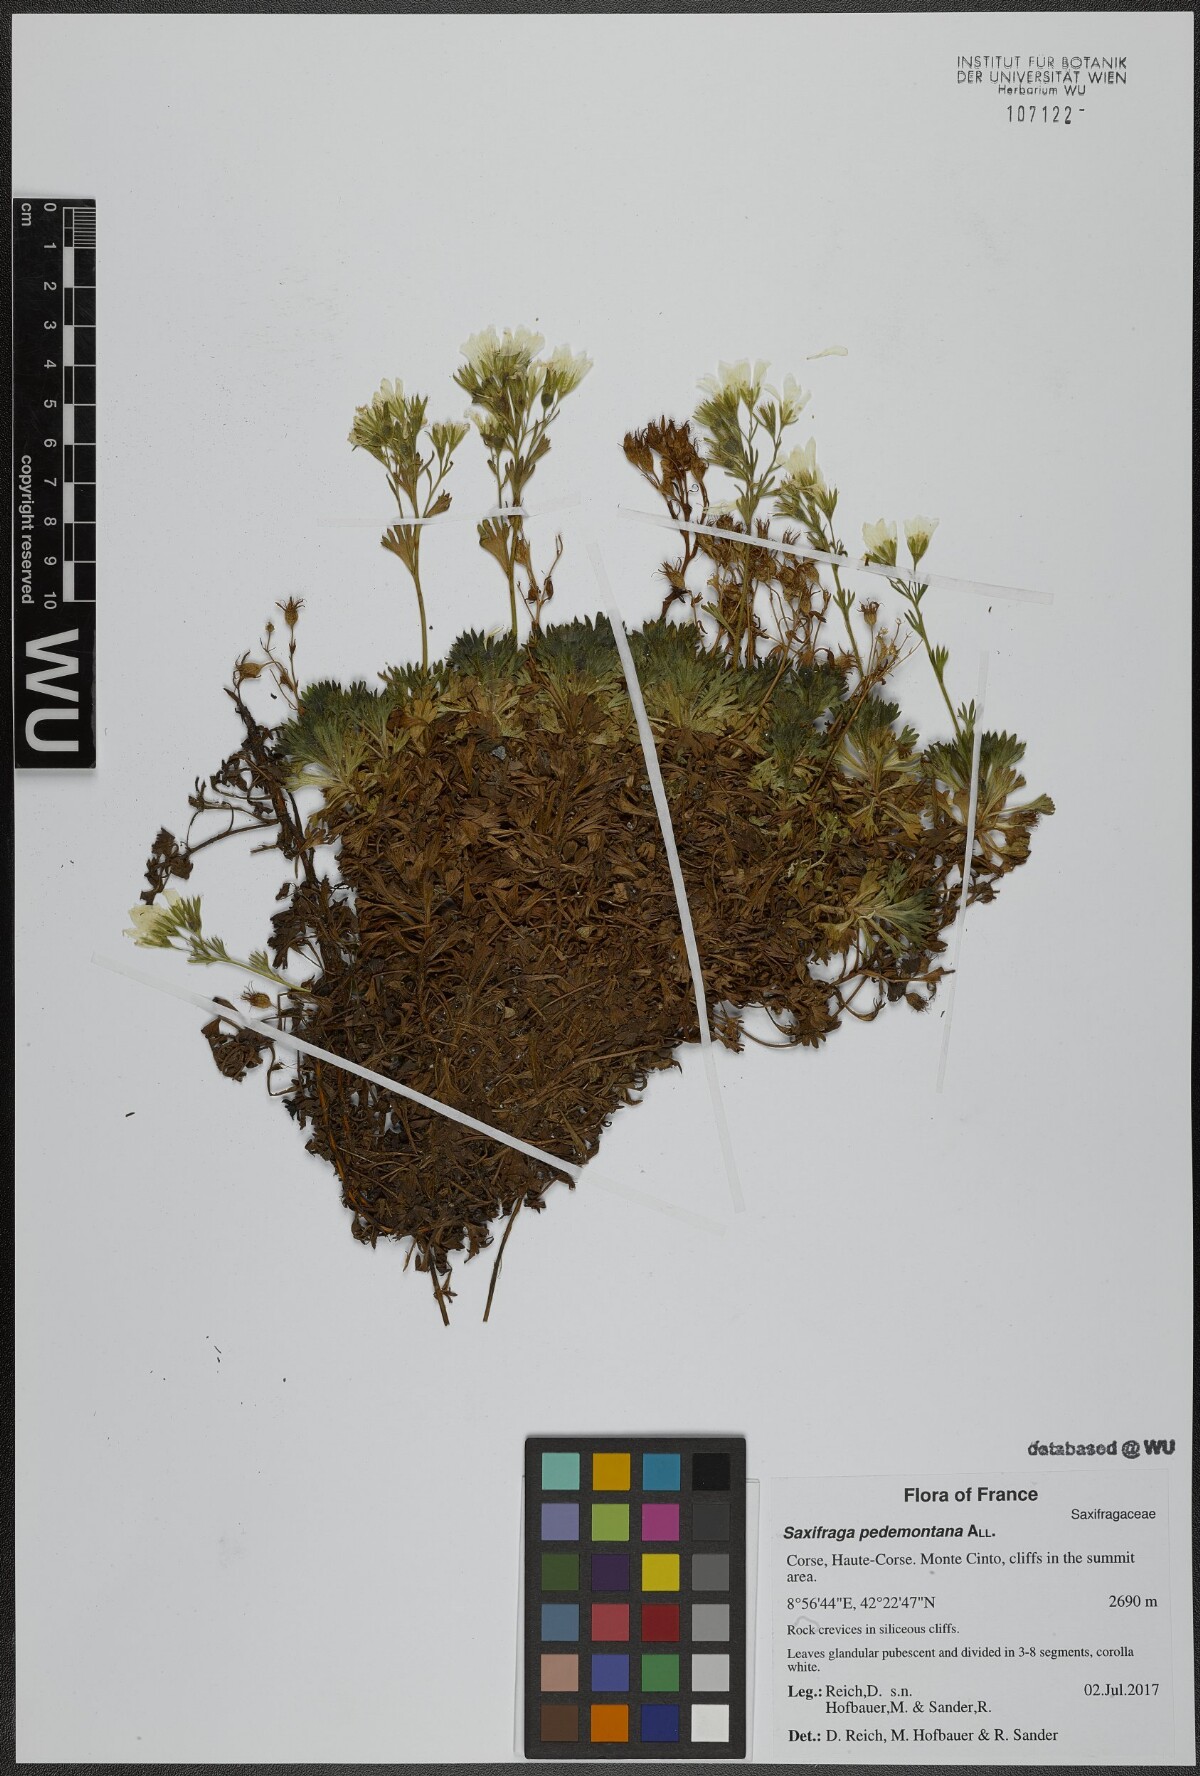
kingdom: Plantae
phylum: Tracheophyta
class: Magnoliopsida
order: Saxifragales
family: Saxifragaceae
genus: Saxifraga
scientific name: Saxifraga pedemontana
